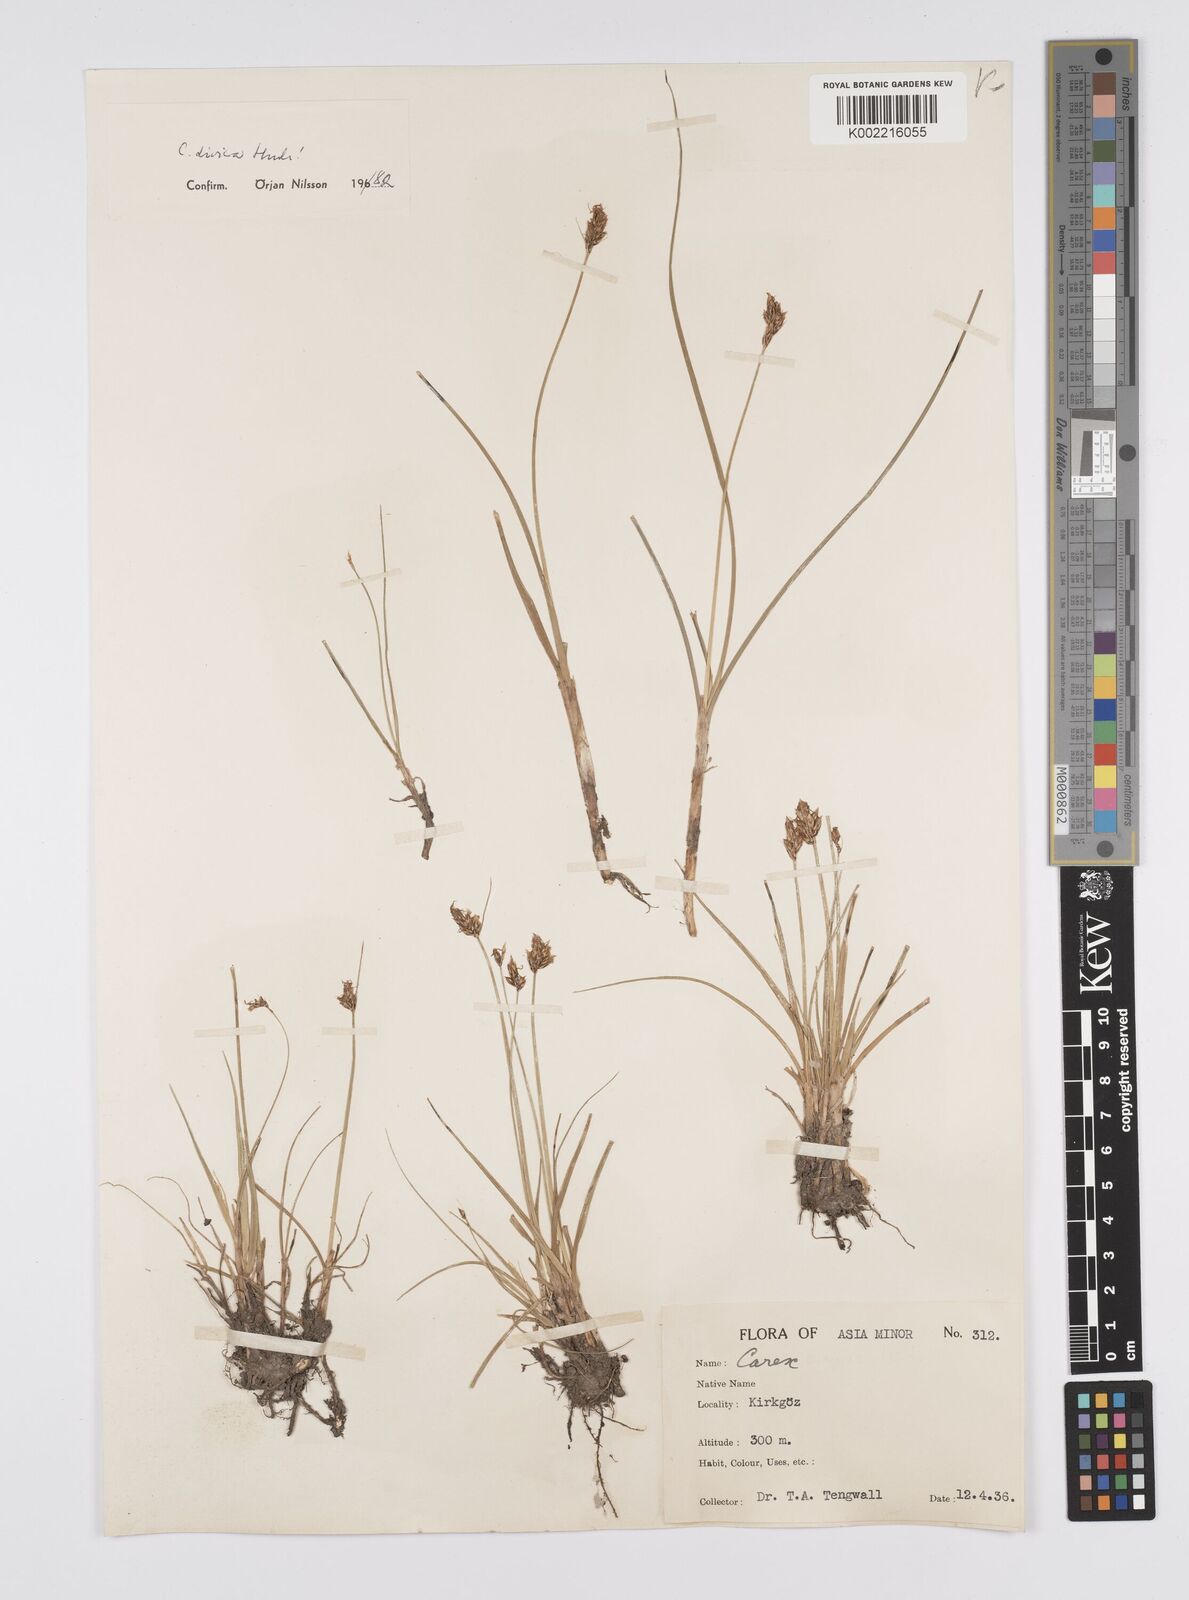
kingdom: Plantae
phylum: Tracheophyta
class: Liliopsida
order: Poales
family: Cyperaceae
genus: Carex
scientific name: Carex divisa
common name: Divided sedge
